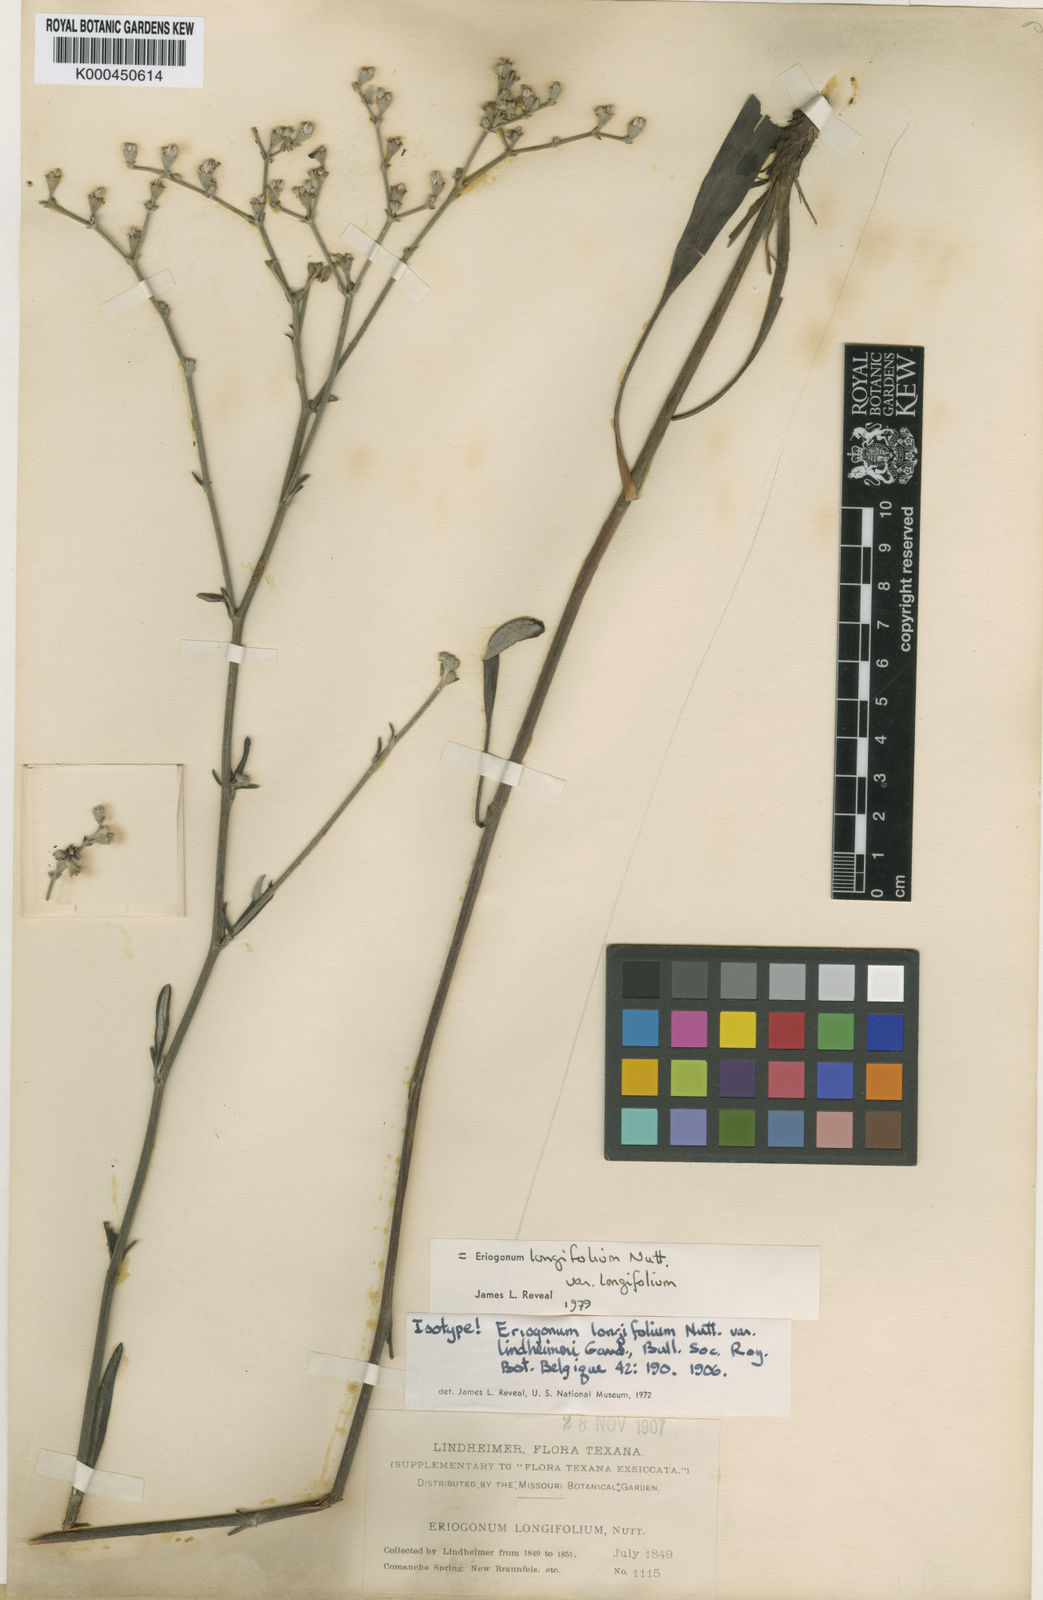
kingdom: Plantae
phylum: Tracheophyta
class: Magnoliopsida
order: Caryophyllales
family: Polygonaceae
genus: Eriogonum
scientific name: Eriogonum longifolium
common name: Longleaf wild buckwheat
